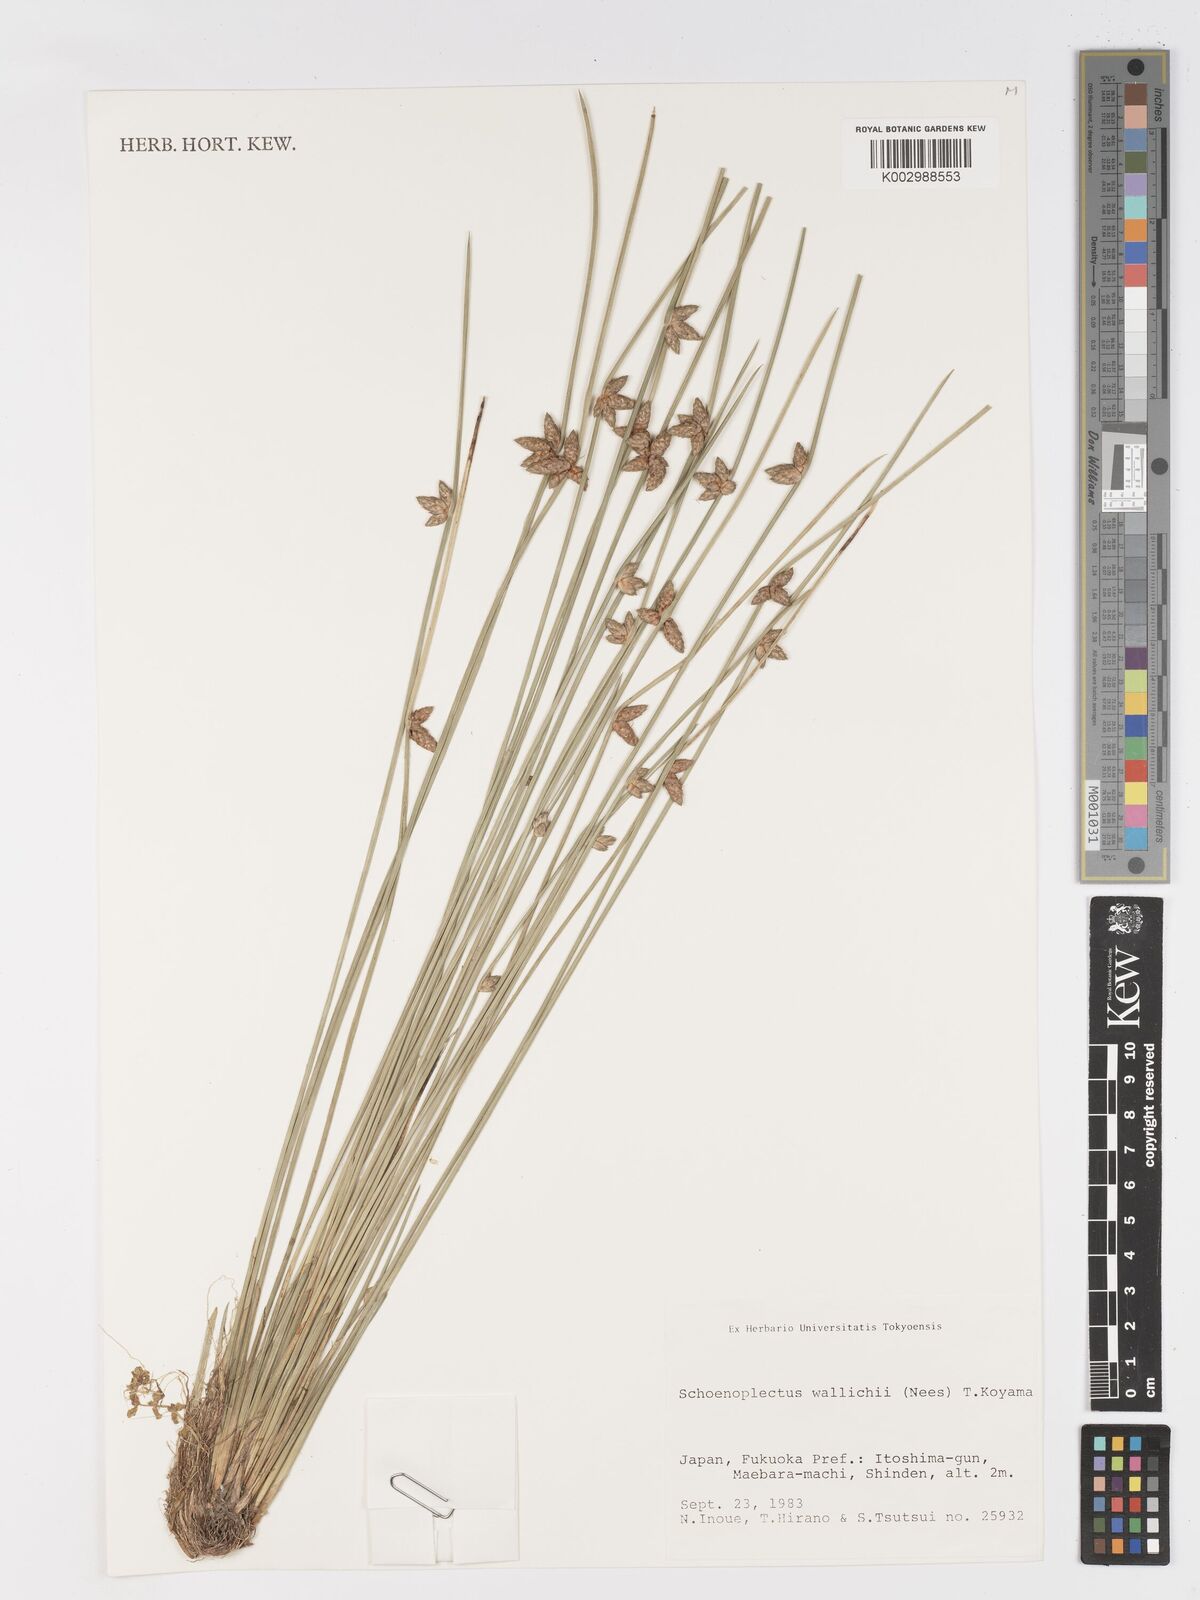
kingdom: Plantae
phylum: Tracheophyta
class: Liliopsida
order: Poales
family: Cyperaceae
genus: Schoenoplectiella
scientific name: Schoenoplectiella wallichii
